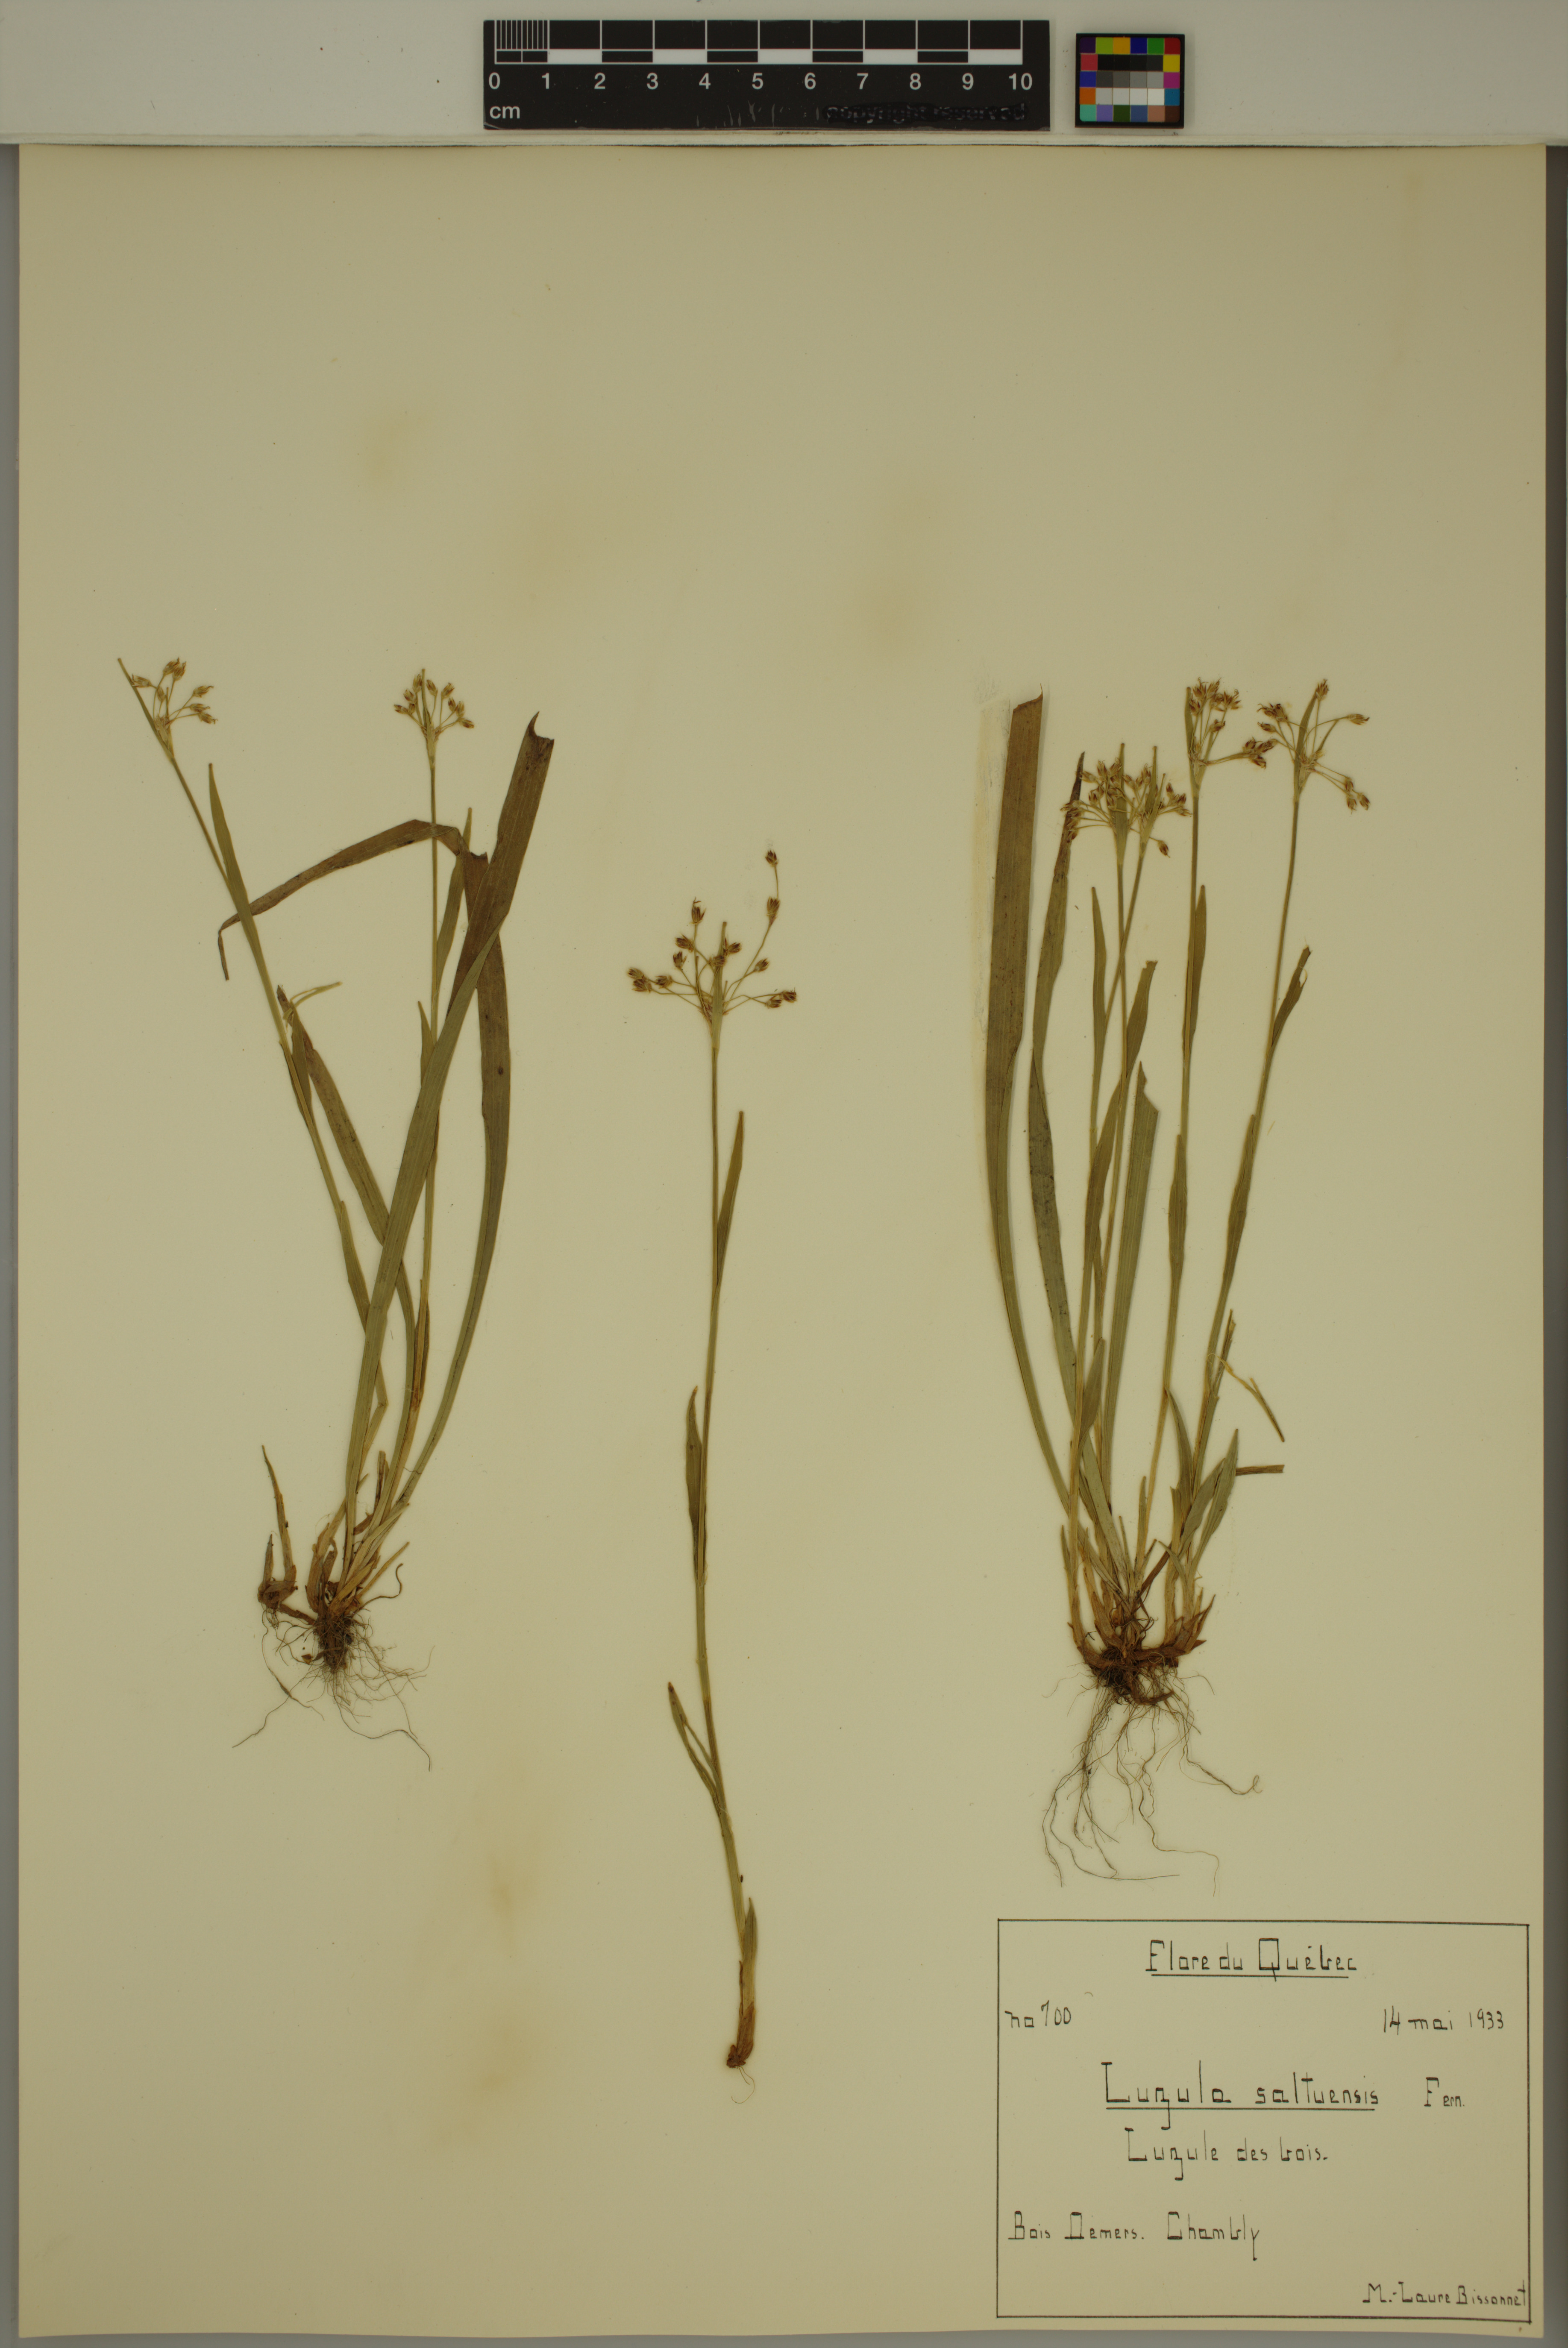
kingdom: Plantae
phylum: Tracheophyta
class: Liliopsida
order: Poales
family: Juncaceae
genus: Luzula
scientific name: Luzula acuminata
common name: Hairy woodrush
